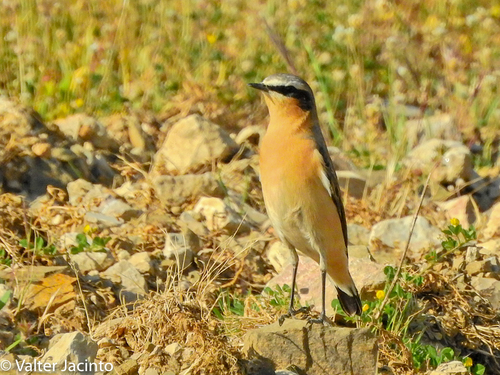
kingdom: Animalia
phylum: Chordata
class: Aves
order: Passeriformes
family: Muscicapidae
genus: Oenanthe
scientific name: Oenanthe oenanthe
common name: Northern wheatear
